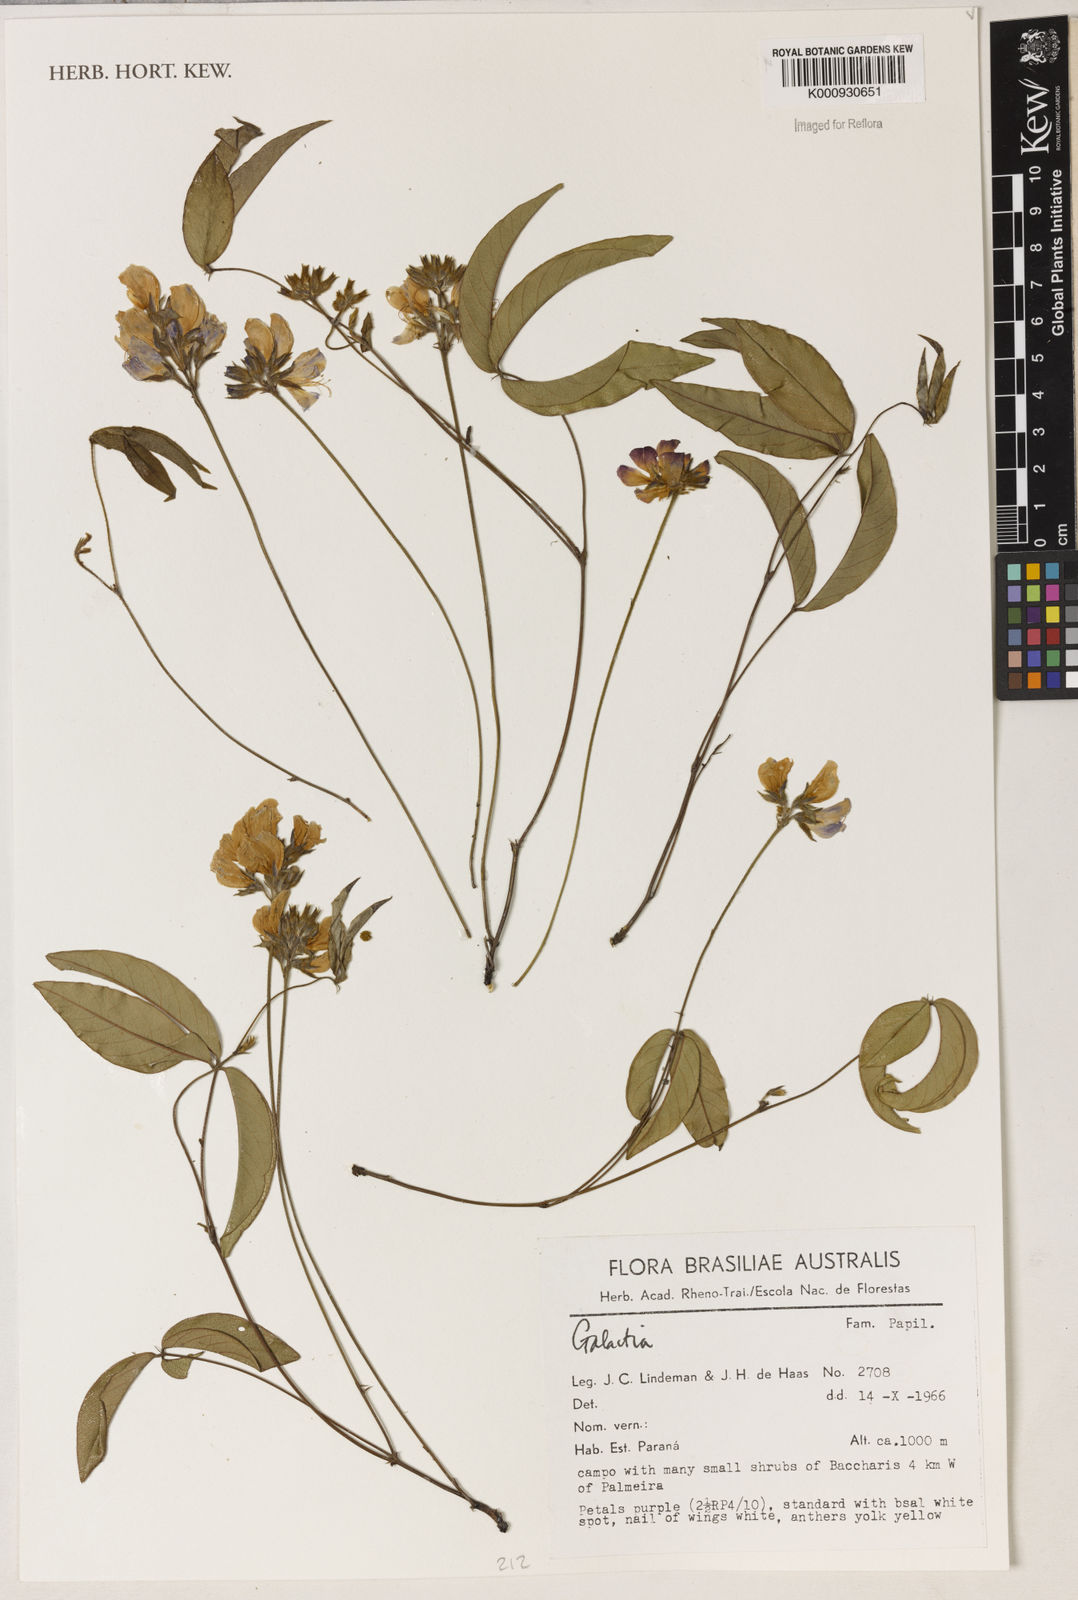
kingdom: Plantae
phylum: Tracheophyta
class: Magnoliopsida
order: Fabales
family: Fabaceae
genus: Galactia
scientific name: Galactia
